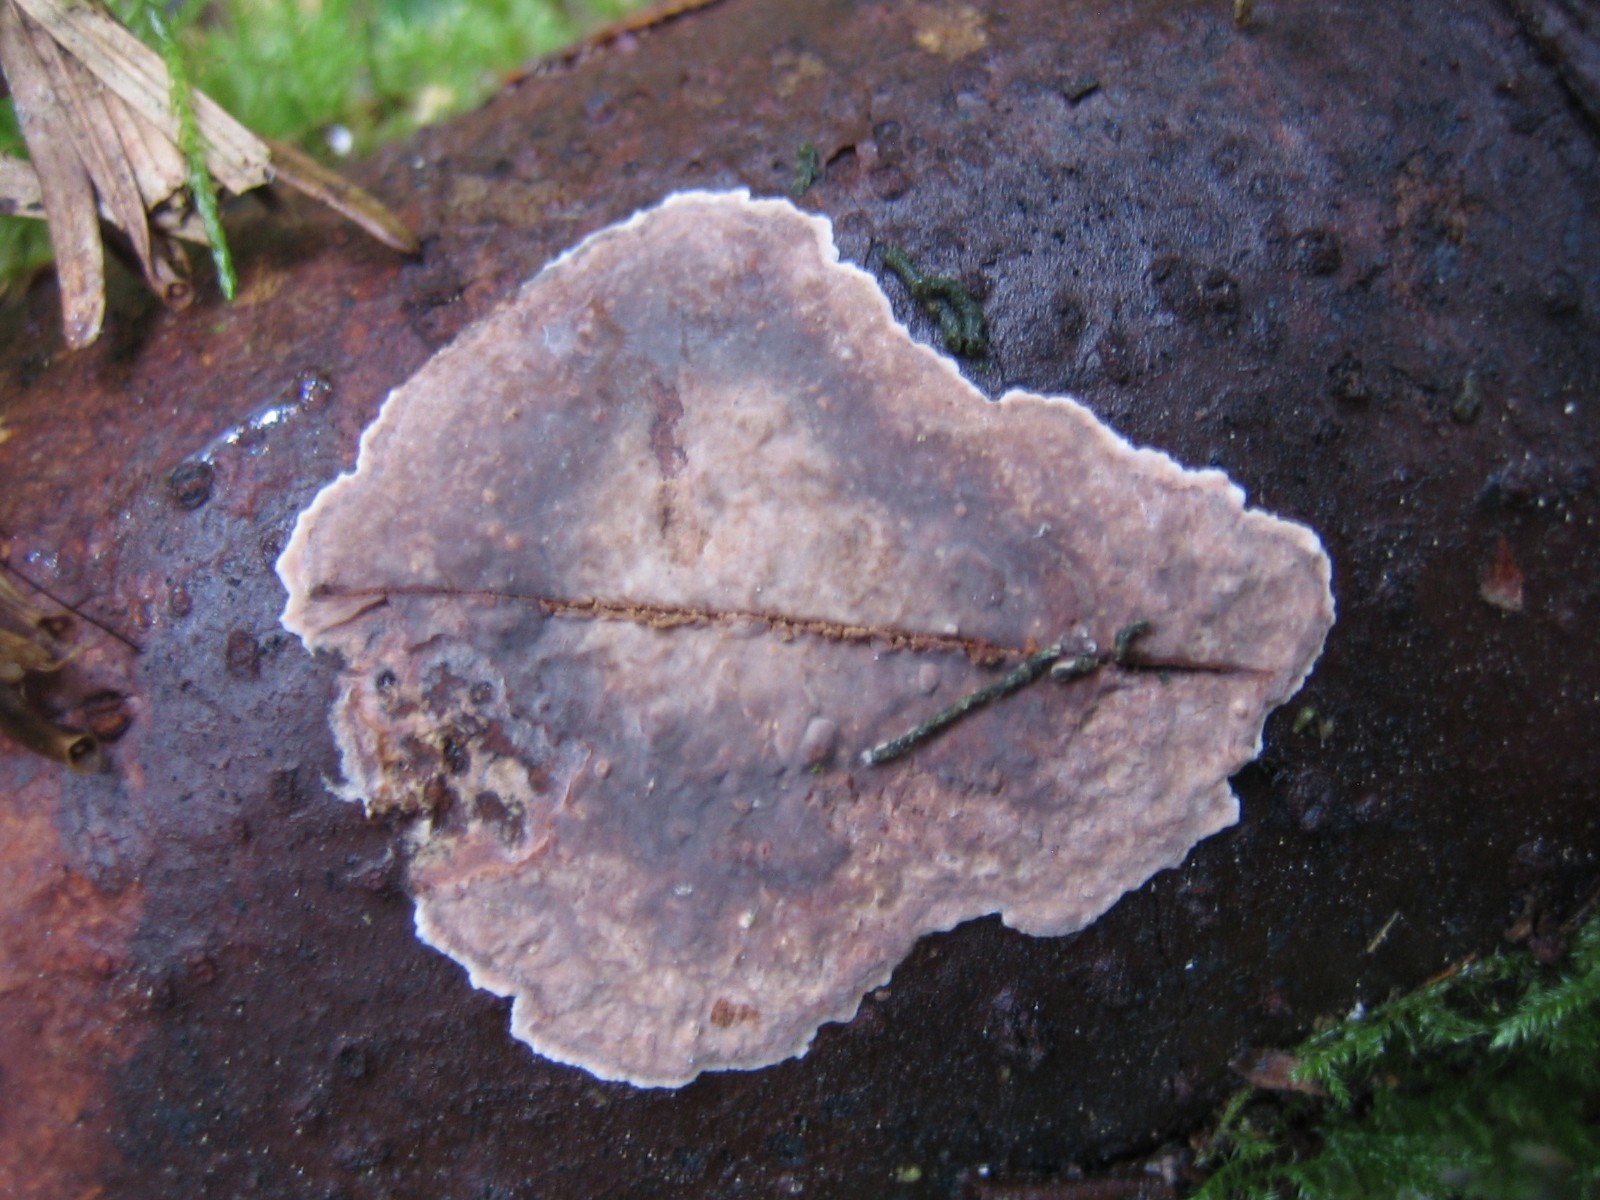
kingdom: Fungi
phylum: Basidiomycota
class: Agaricomycetes
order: Russulales
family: Echinodontiaceae
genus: Amylostereum
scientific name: Amylostereum chailletii
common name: gran-lædersvamp
